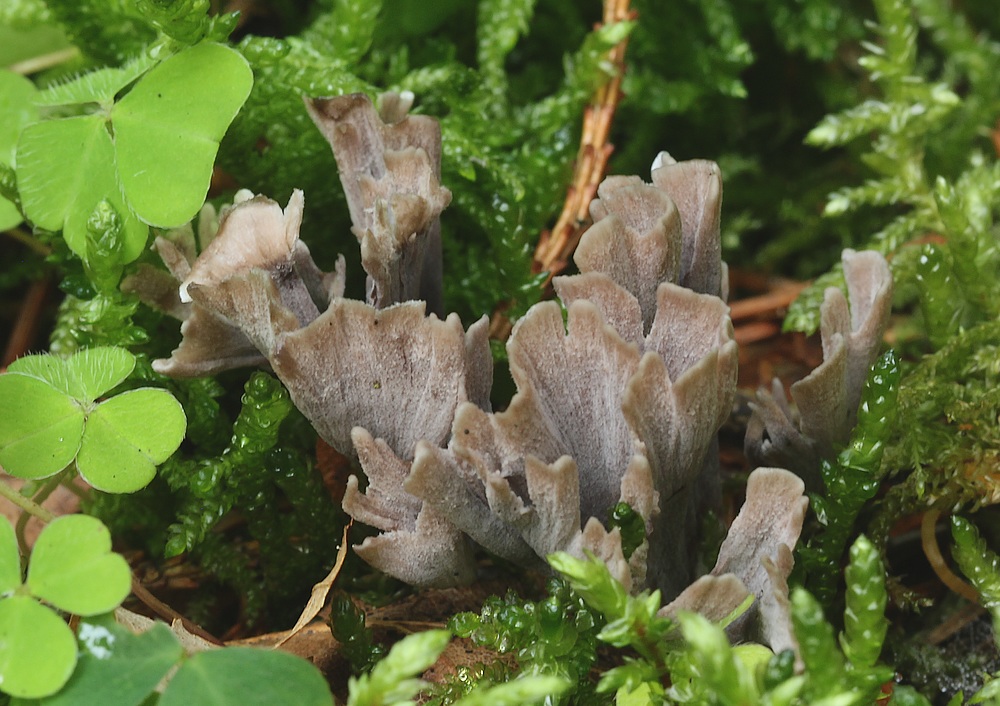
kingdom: Fungi
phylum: Basidiomycota
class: Agaricomycetes
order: Thelephorales
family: Thelephoraceae
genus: Thelephora
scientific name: Thelephora palmata
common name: grenet frynsesvamp
